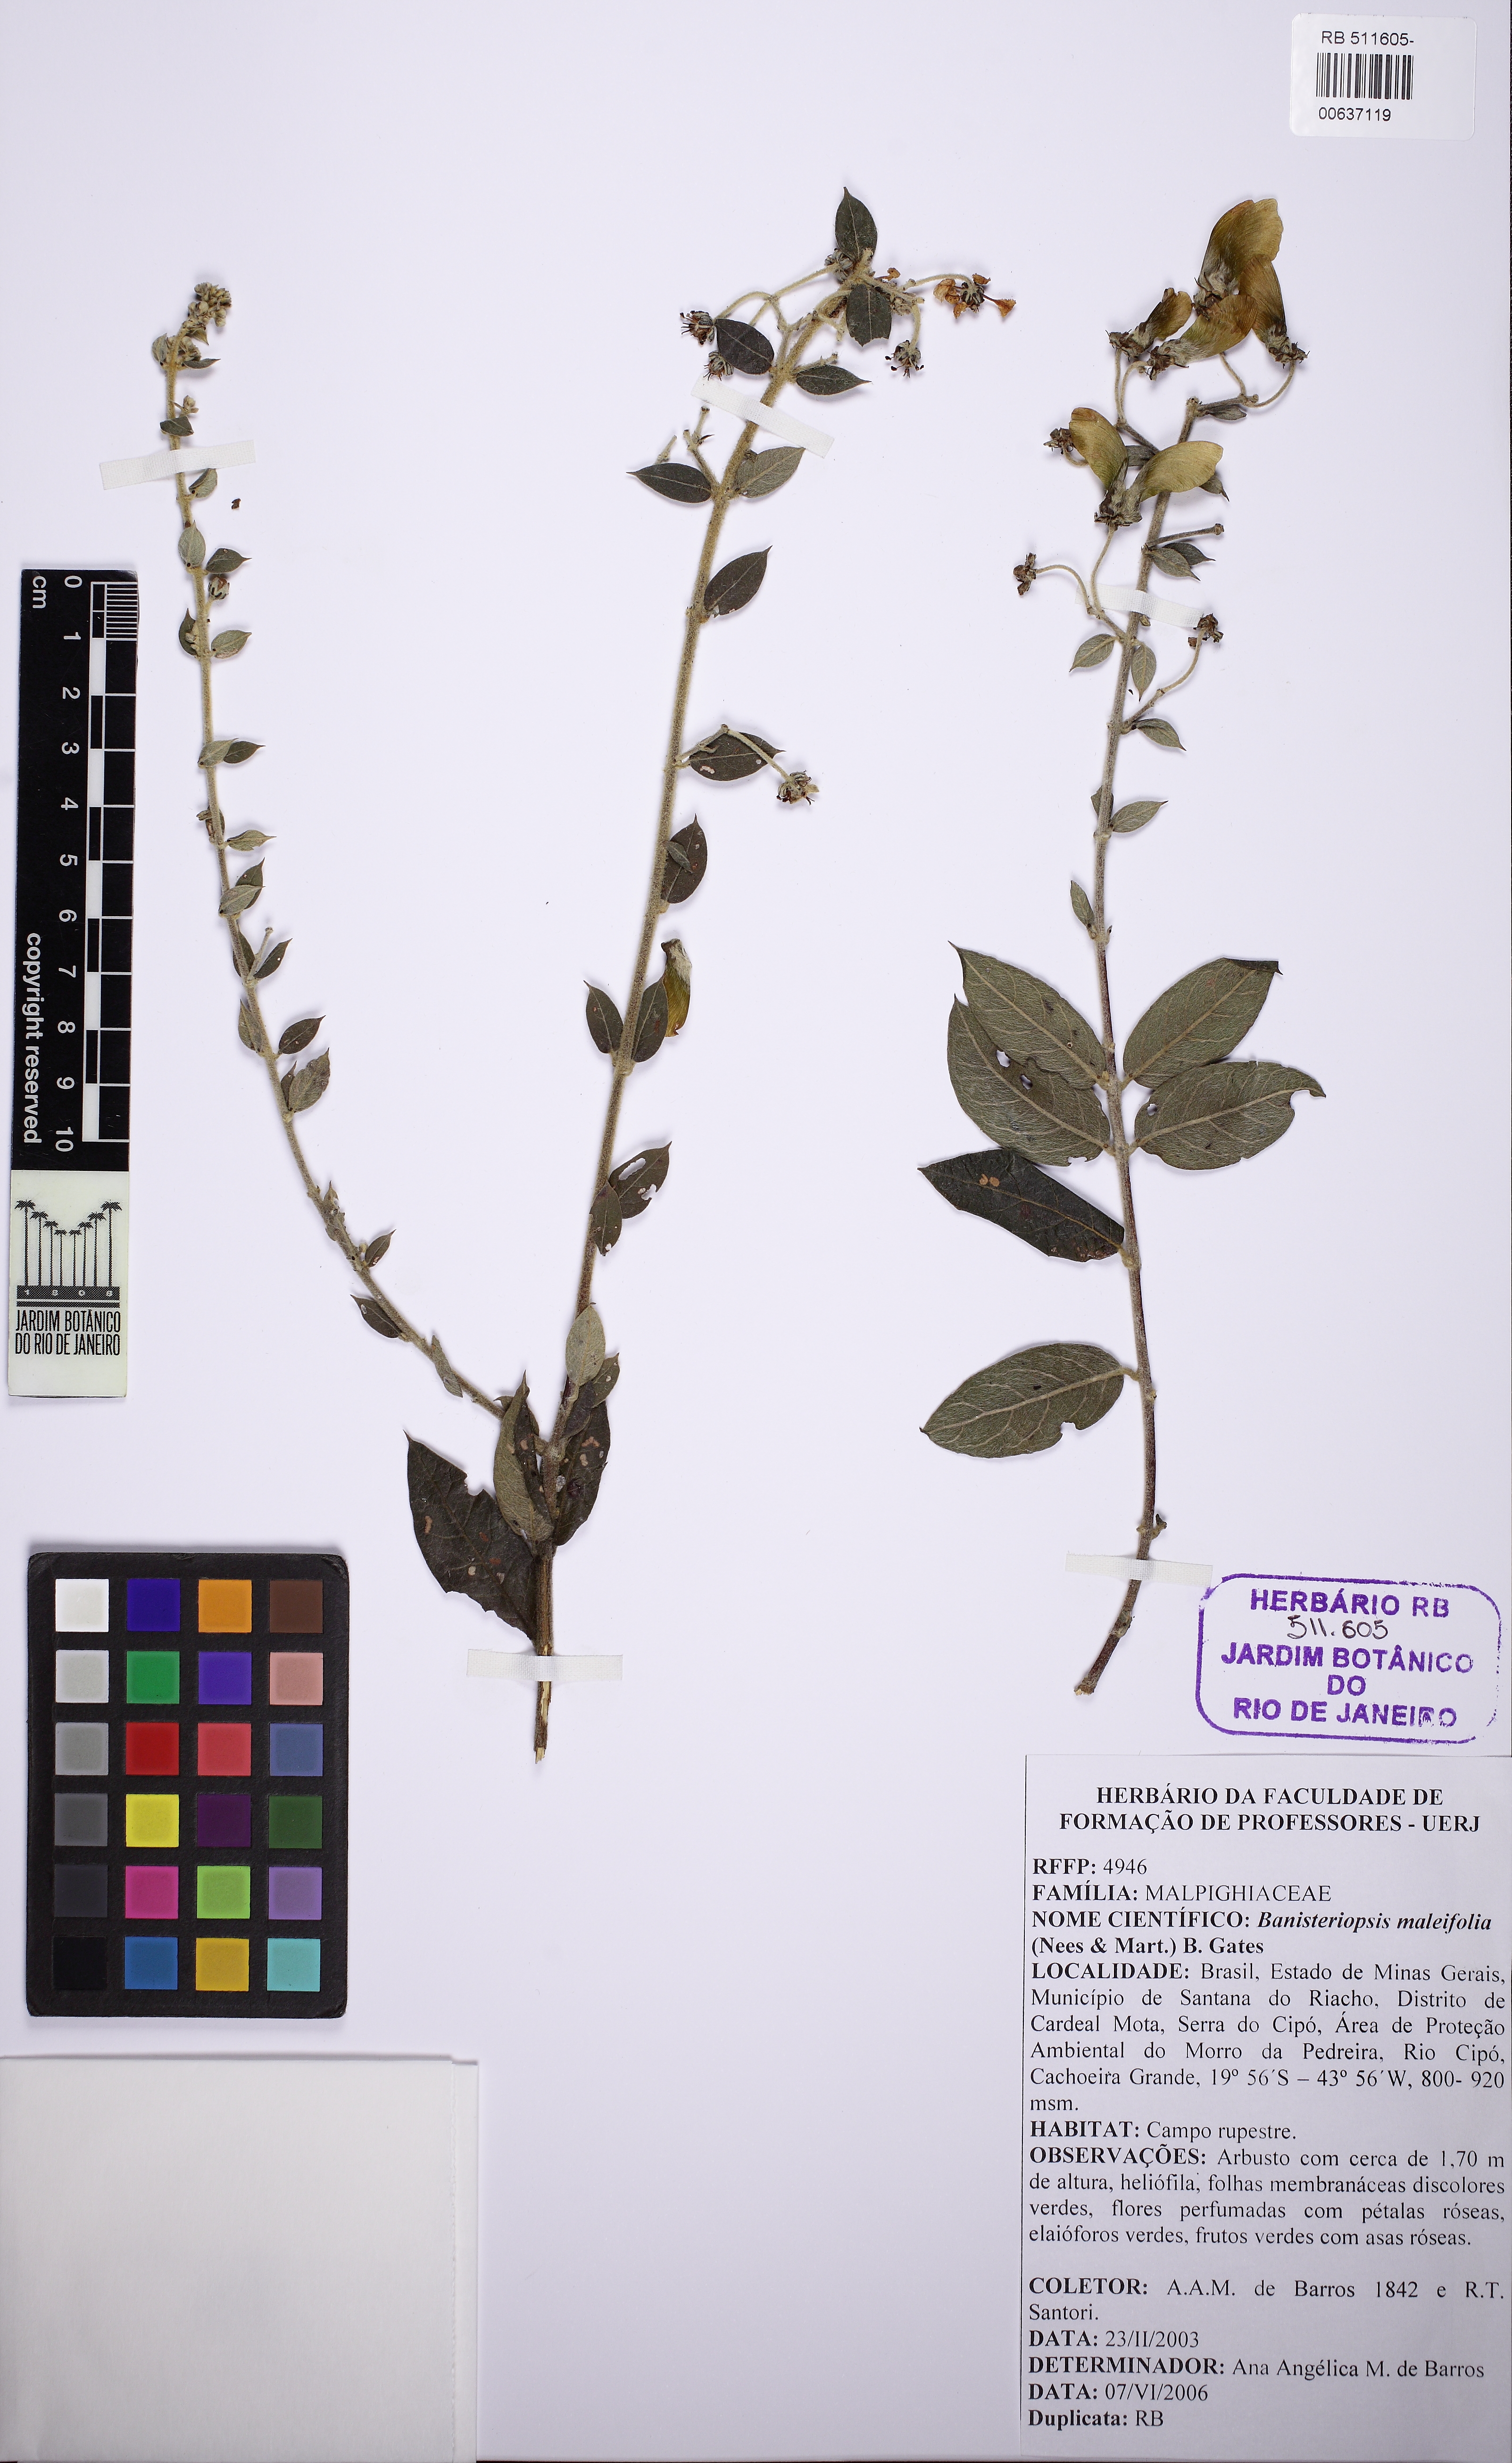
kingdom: Plantae
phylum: Tracheophyta
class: Magnoliopsida
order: Malpighiales
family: Malpighiaceae
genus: Banisteriopsis
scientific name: Banisteriopsis malifolia
